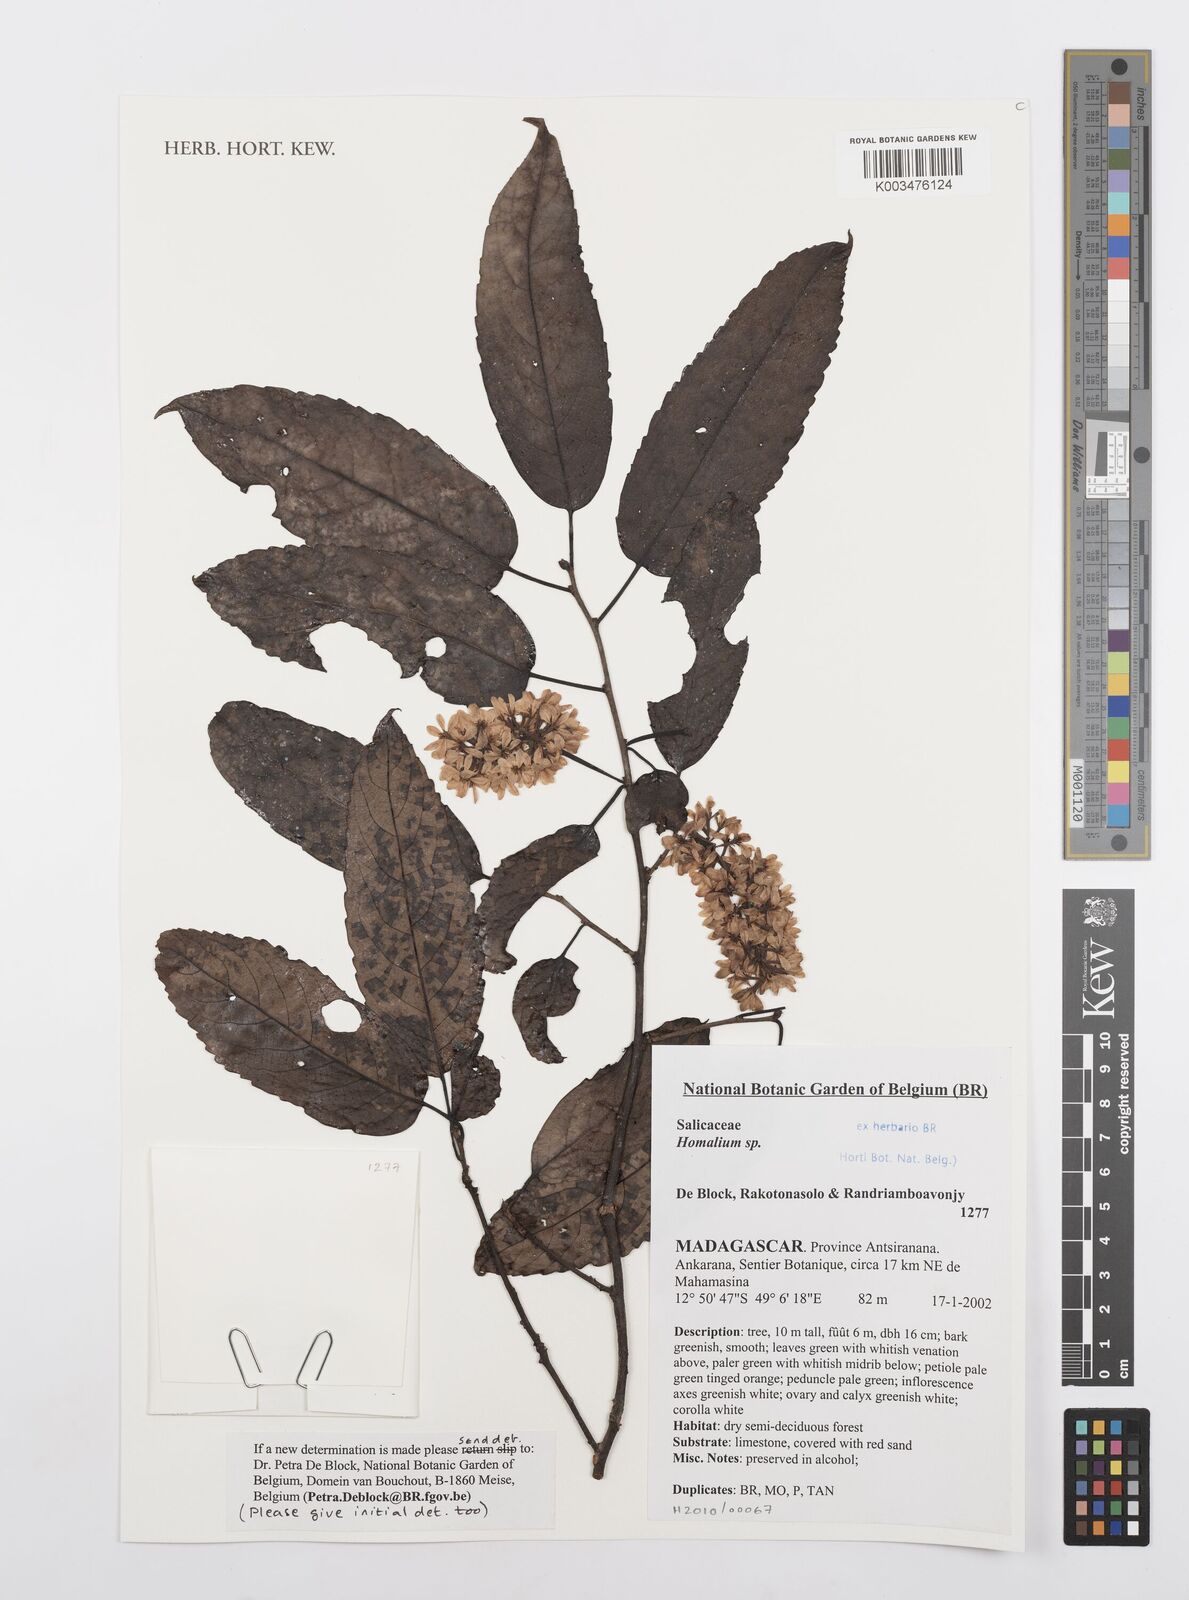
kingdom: Plantae
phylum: Tracheophyta
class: Magnoliopsida
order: Malpighiales
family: Salicaceae
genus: Homalium
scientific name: Homalium
